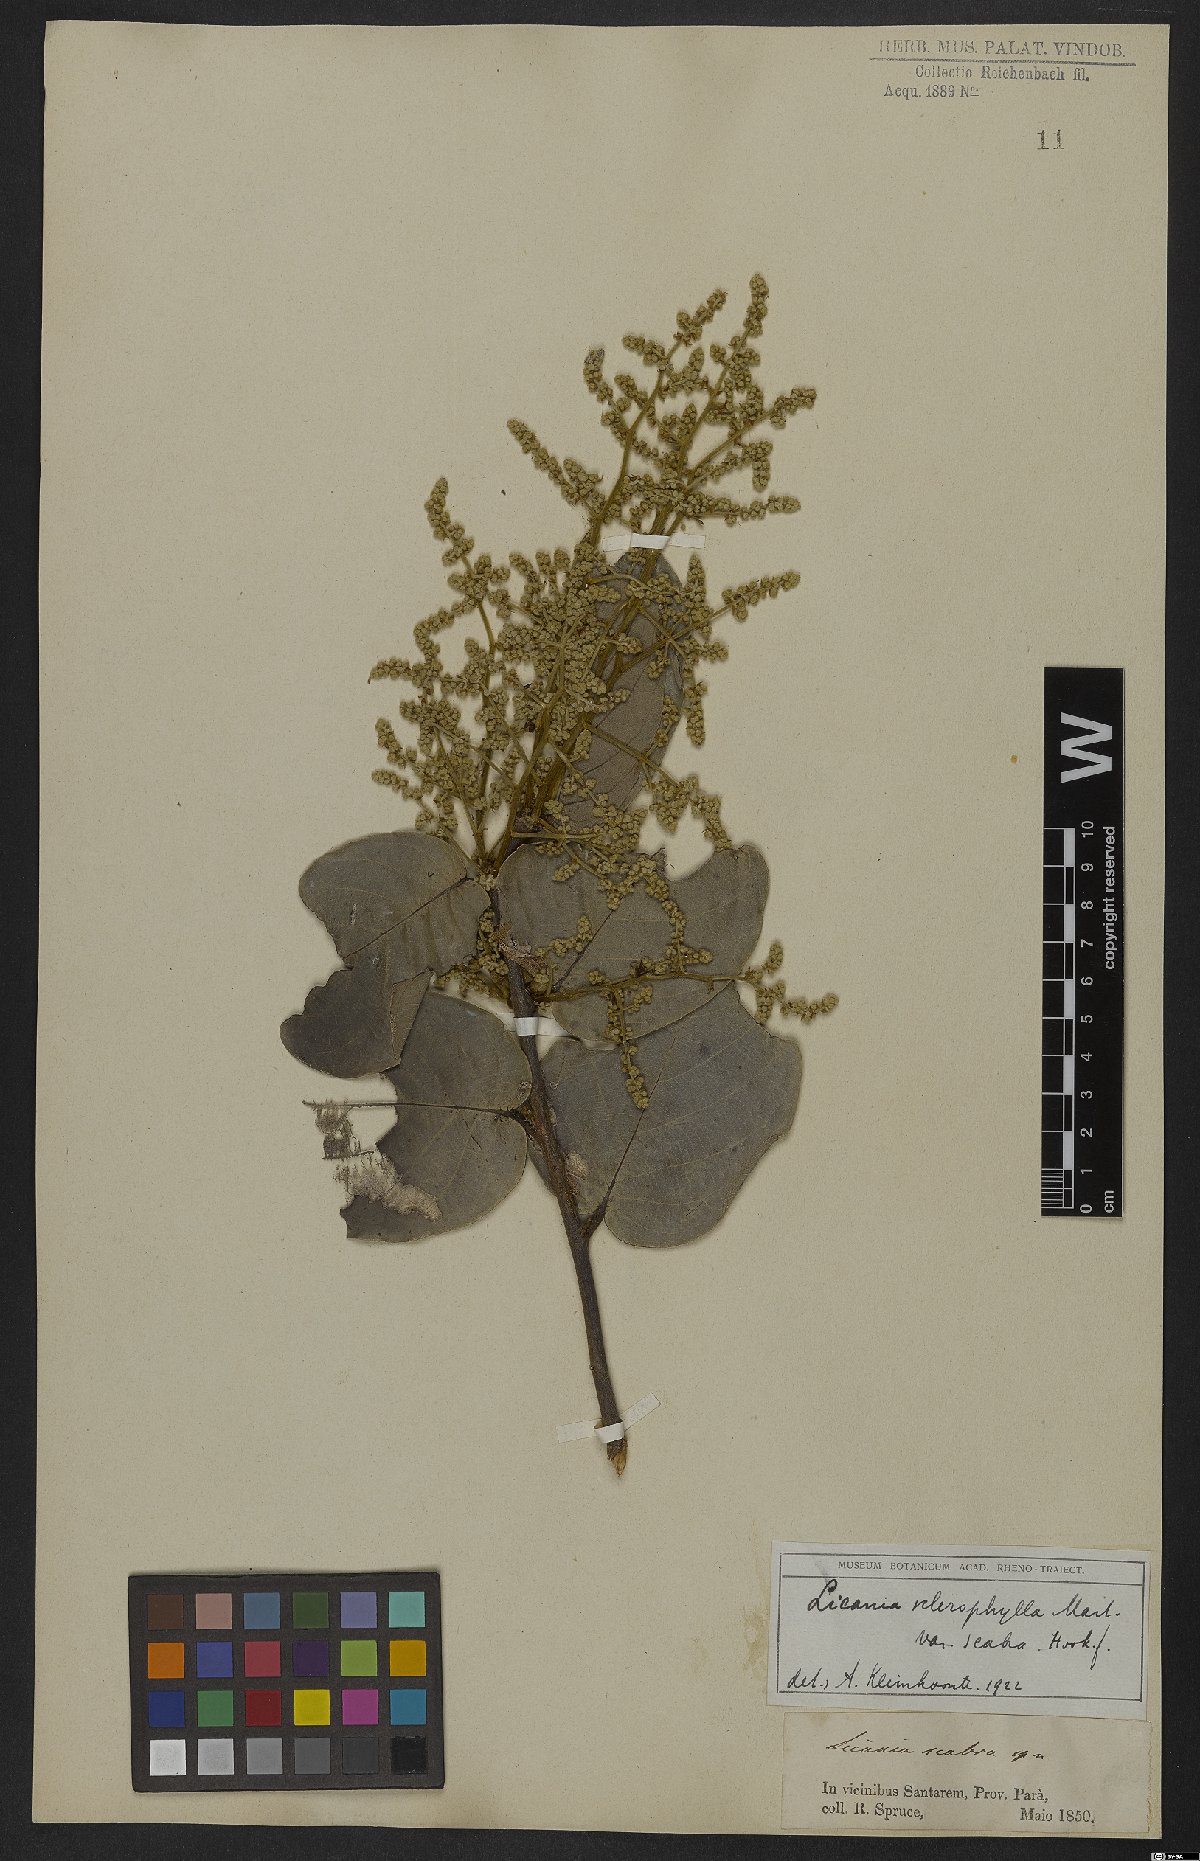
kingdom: Plantae
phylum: Tracheophyta
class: Magnoliopsida
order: Malpighiales
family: Chrysobalanaceae
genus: Licania
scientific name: Licania sclerophylla
